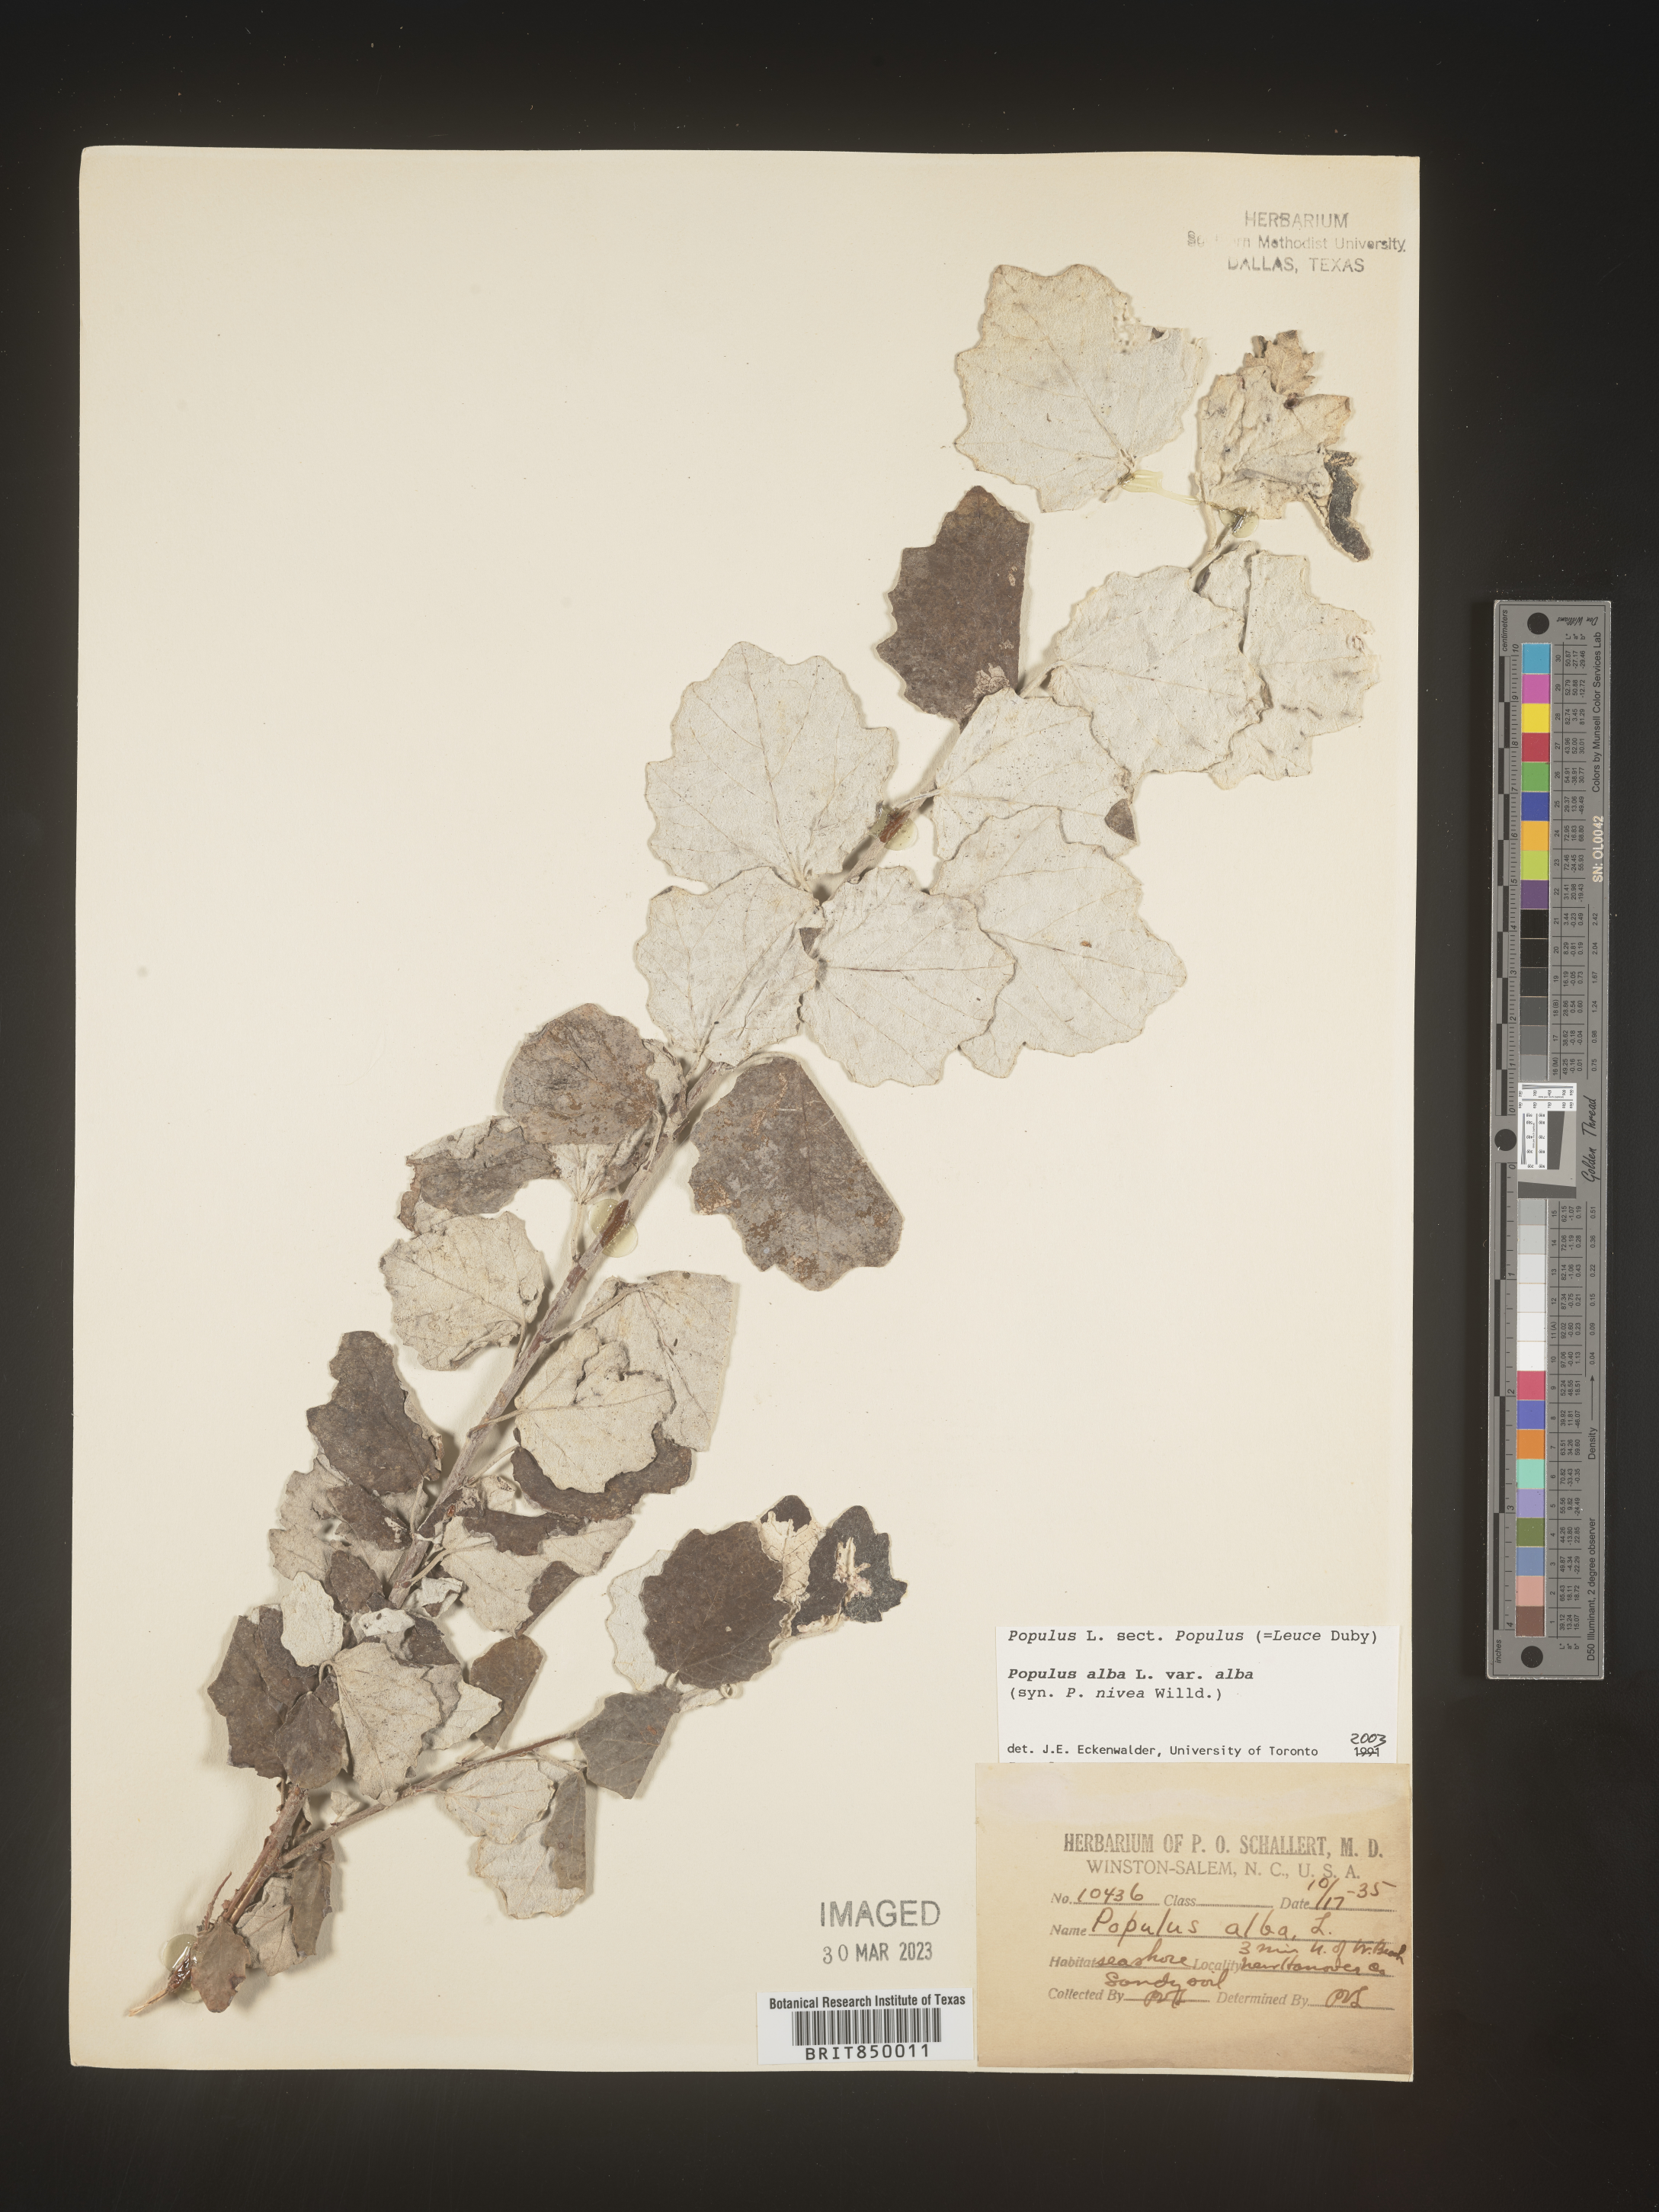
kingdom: Plantae
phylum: Tracheophyta
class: Magnoliopsida
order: Malpighiales
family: Salicaceae
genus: Populus
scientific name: Populus alba
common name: White poplar
